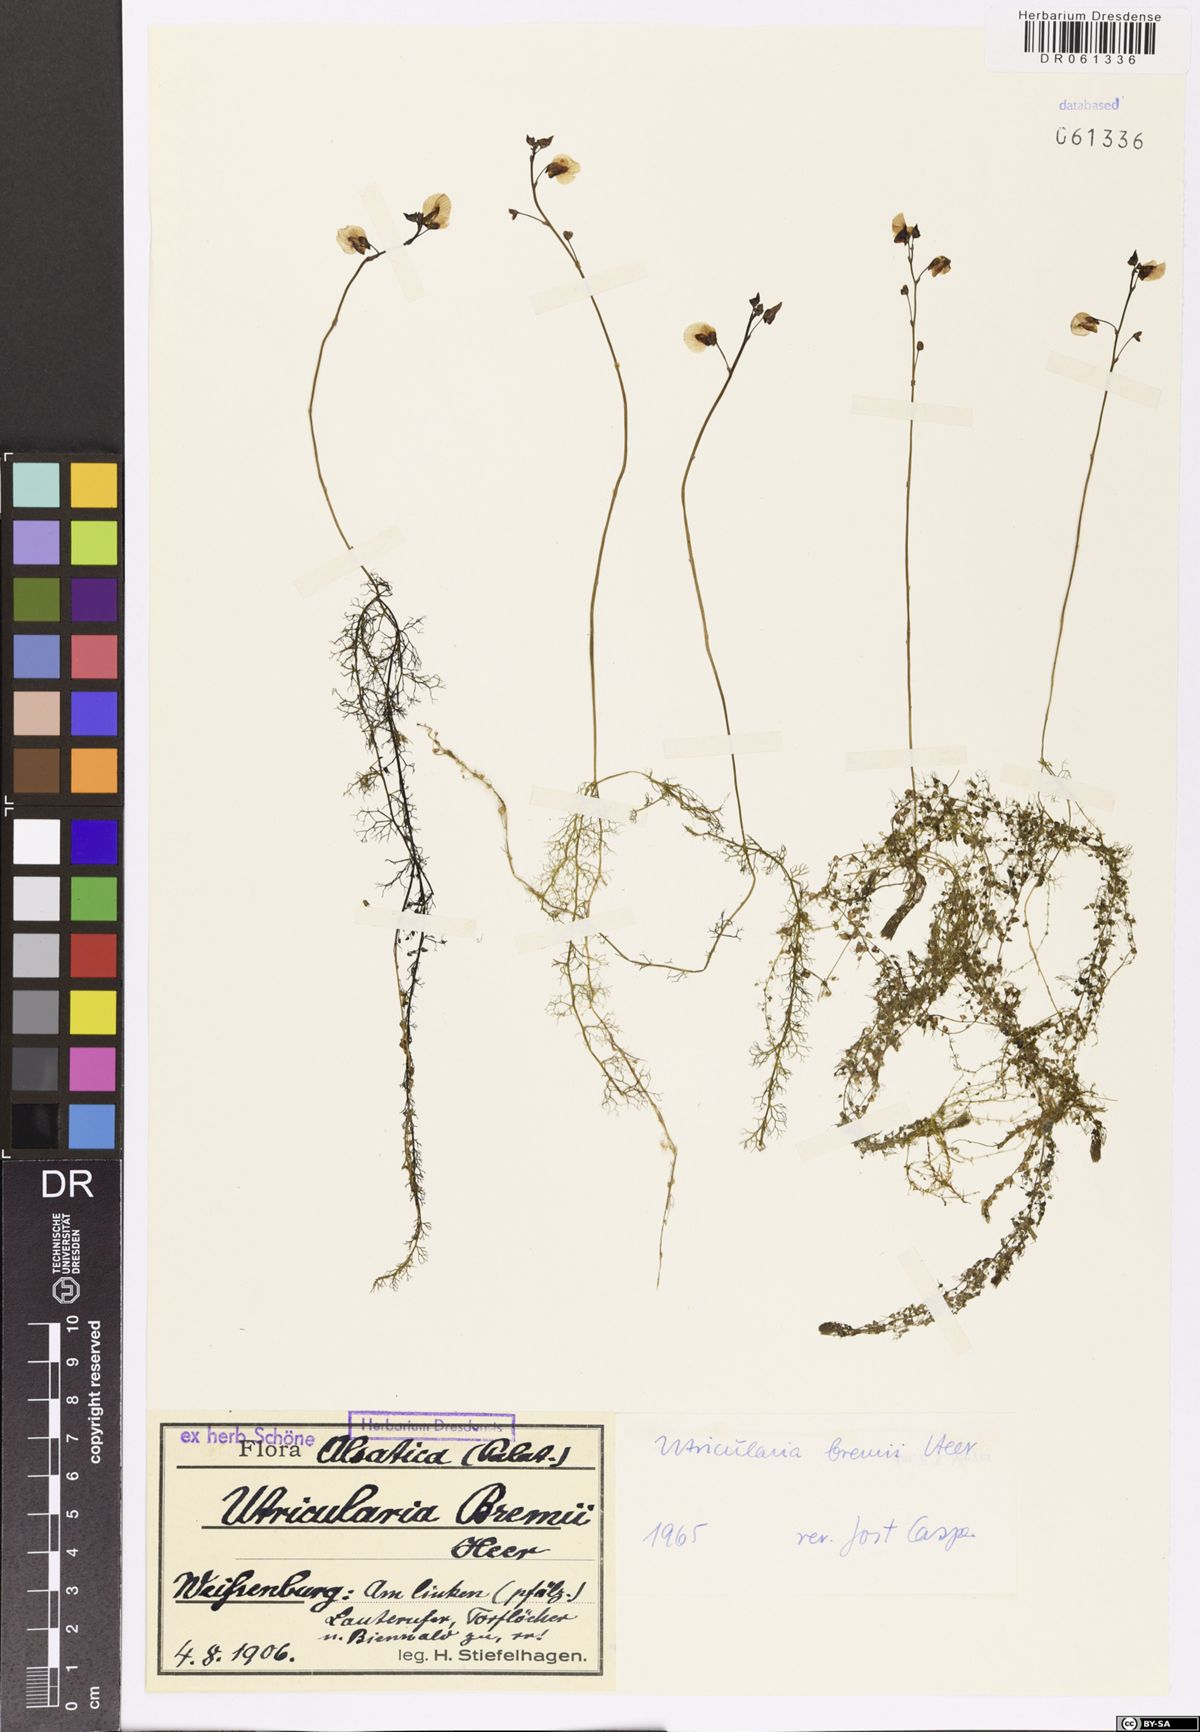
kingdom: Plantae
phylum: Tracheophyta
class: Magnoliopsida
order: Lamiales
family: Lentibulariaceae
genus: Utricularia
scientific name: Utricularia bremii
